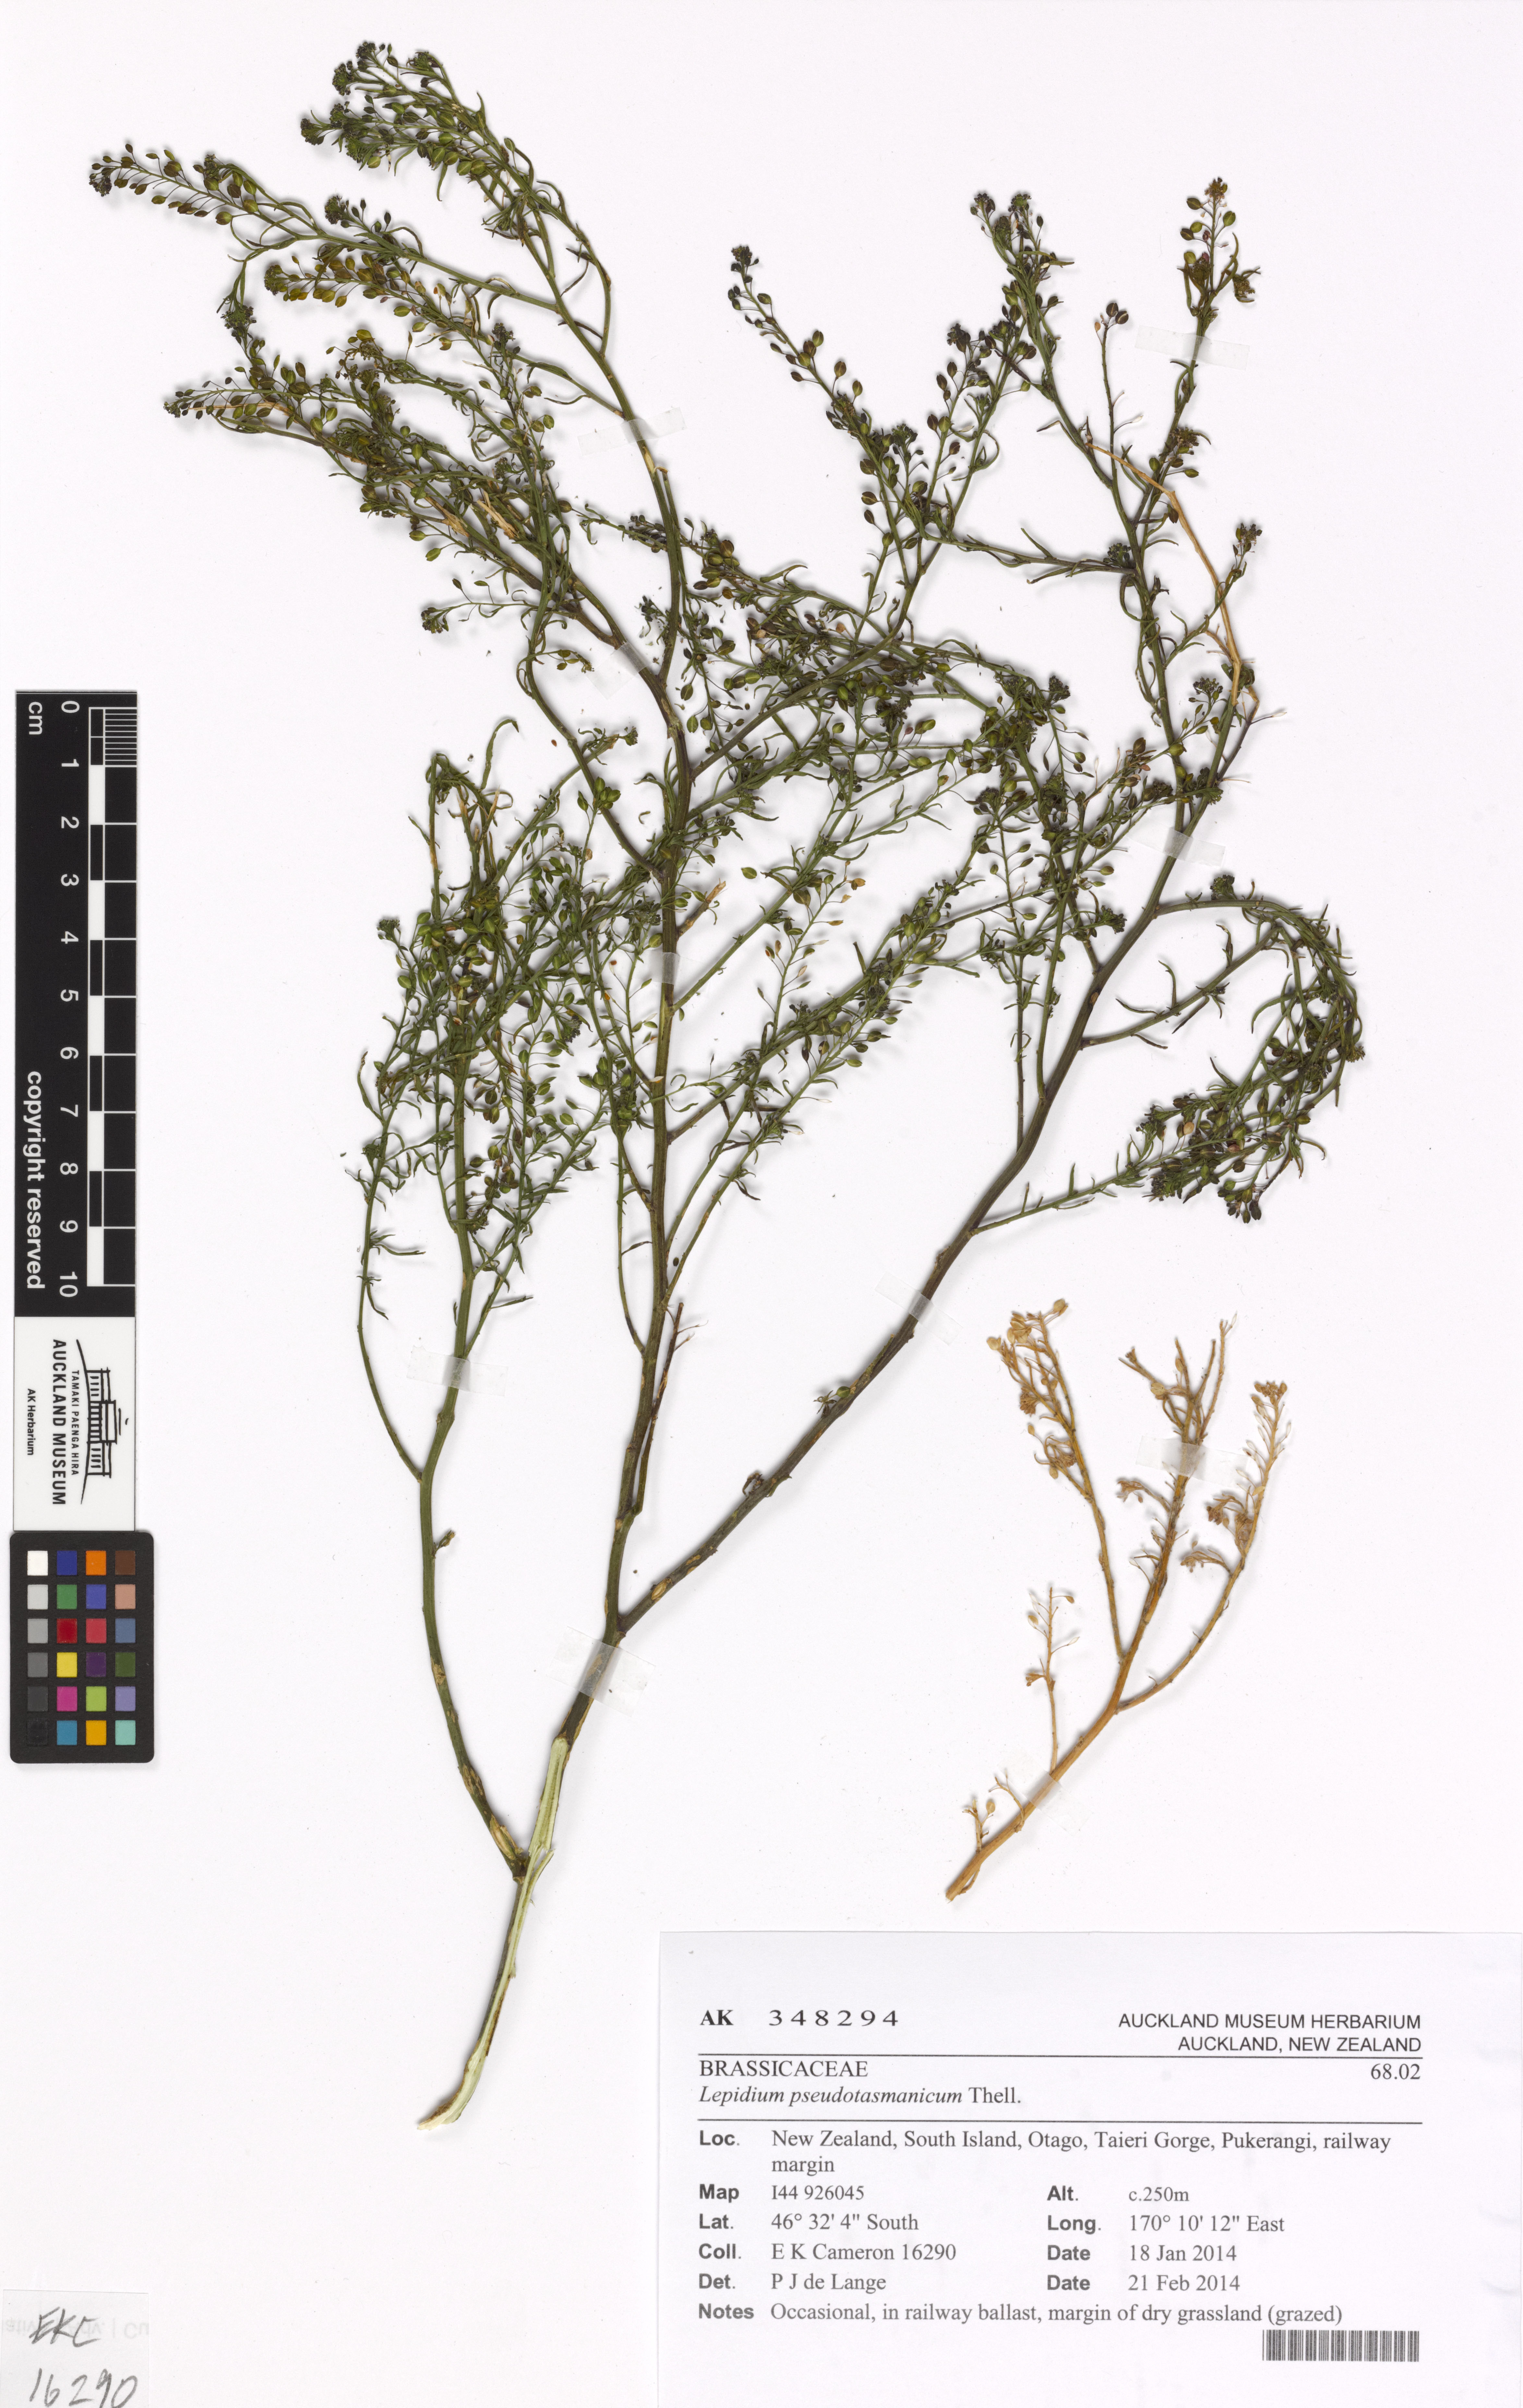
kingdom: Plantae
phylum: Tracheophyta
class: Magnoliopsida
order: Brassicales
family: Brassicaceae
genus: Lepidium
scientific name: Lepidium pseudotasmanicum
